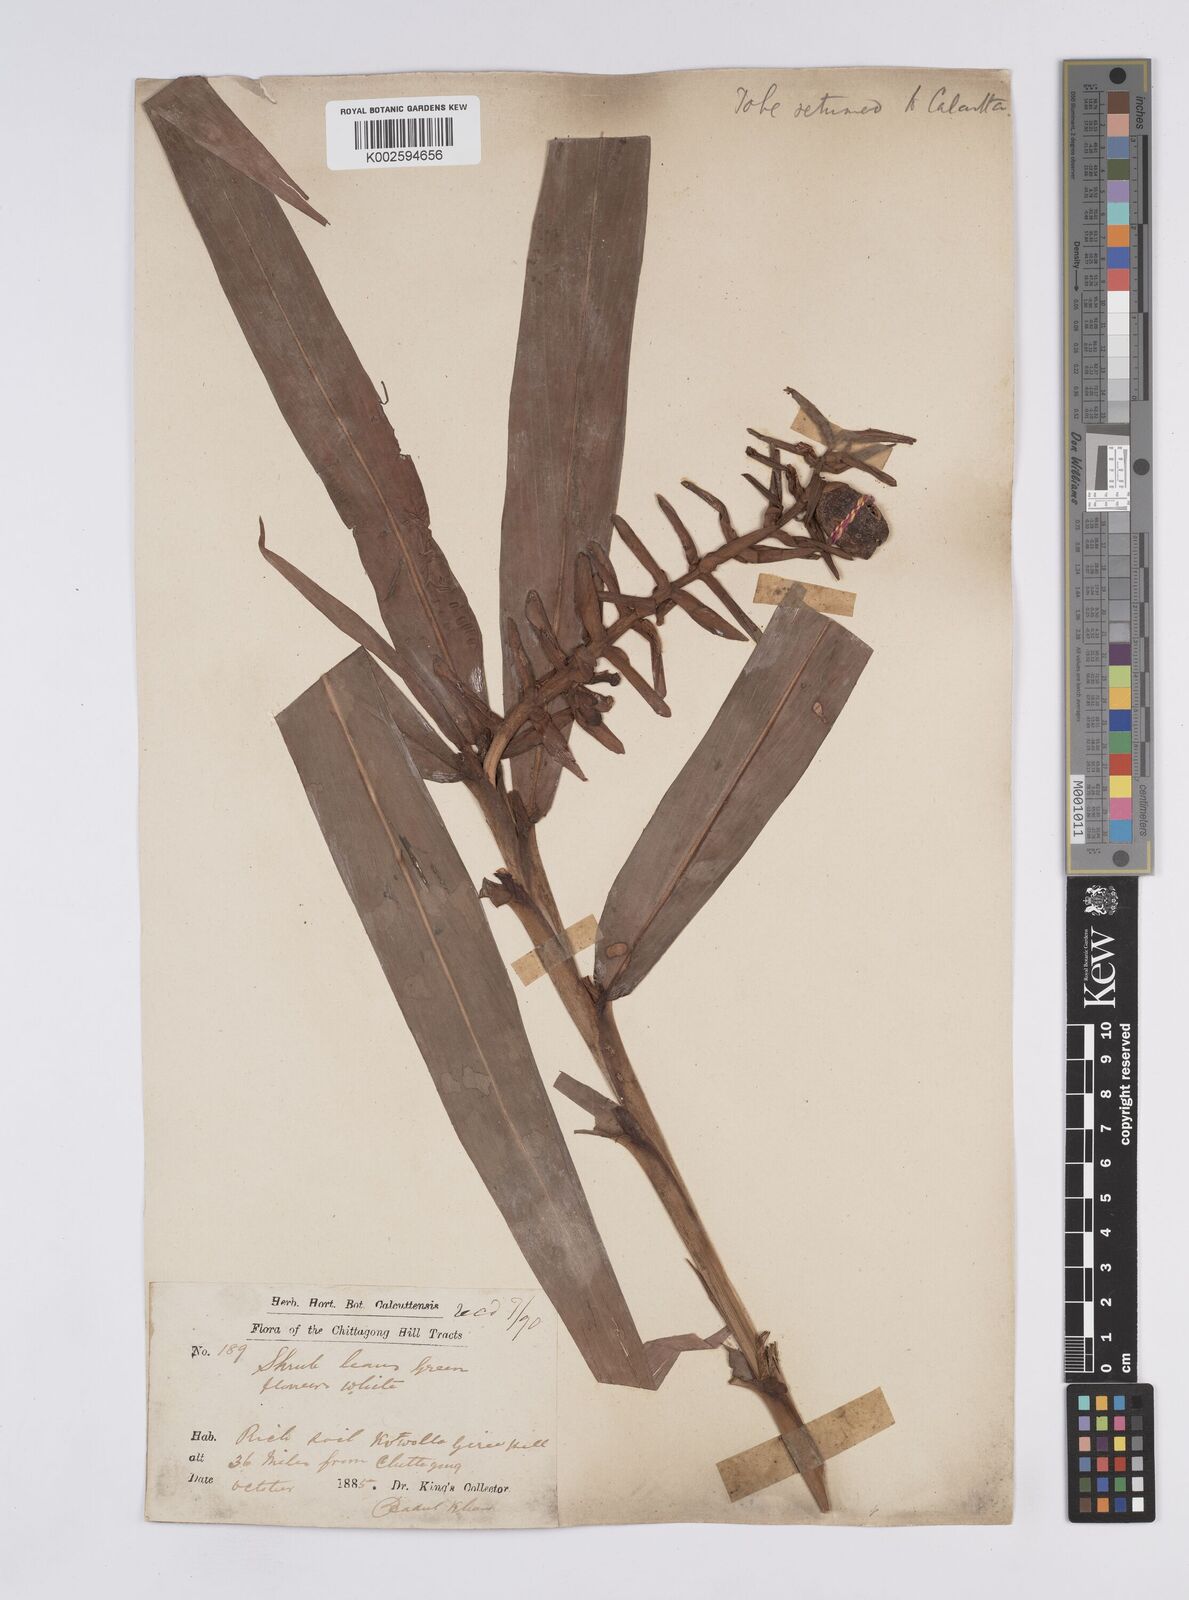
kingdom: Plantae
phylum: Tracheophyta
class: Liliopsida
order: Zingiberales
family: Zingiberaceae
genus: Hedychium
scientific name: Hedychium coccineum
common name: Red ginger-lily
